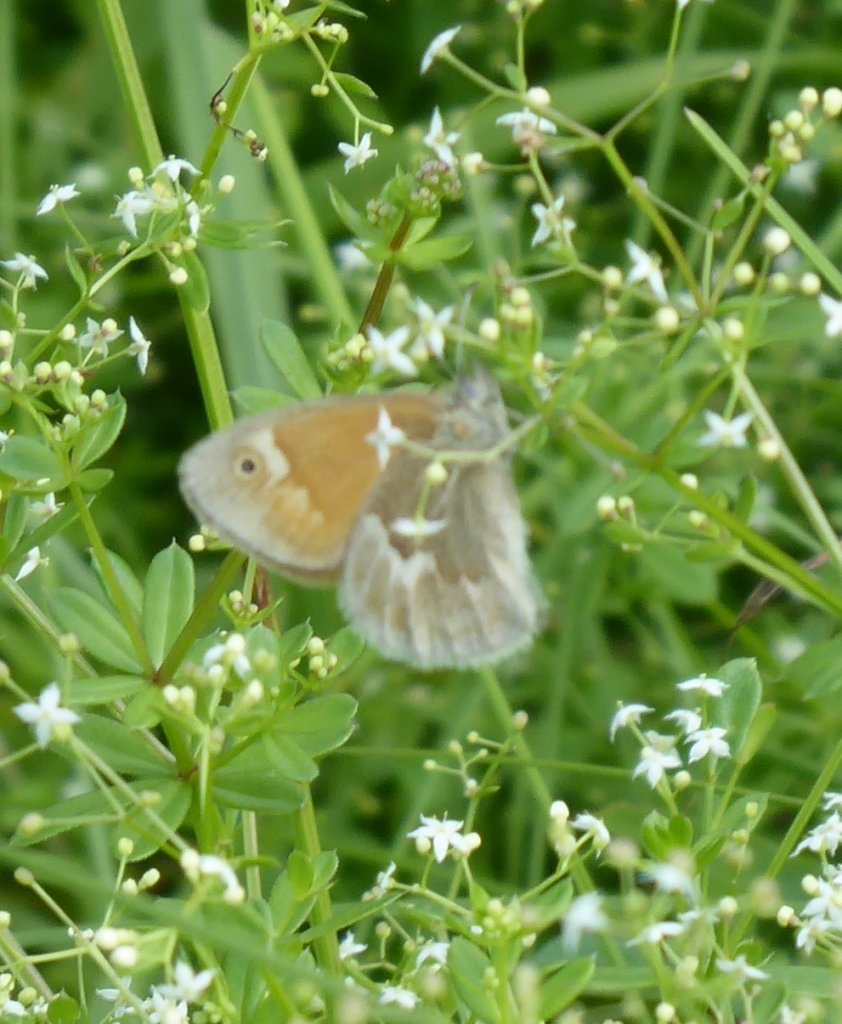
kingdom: Animalia
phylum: Arthropoda
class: Insecta
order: Lepidoptera
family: Nymphalidae
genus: Coenonympha
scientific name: Coenonympha tullia
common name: Large Heath
